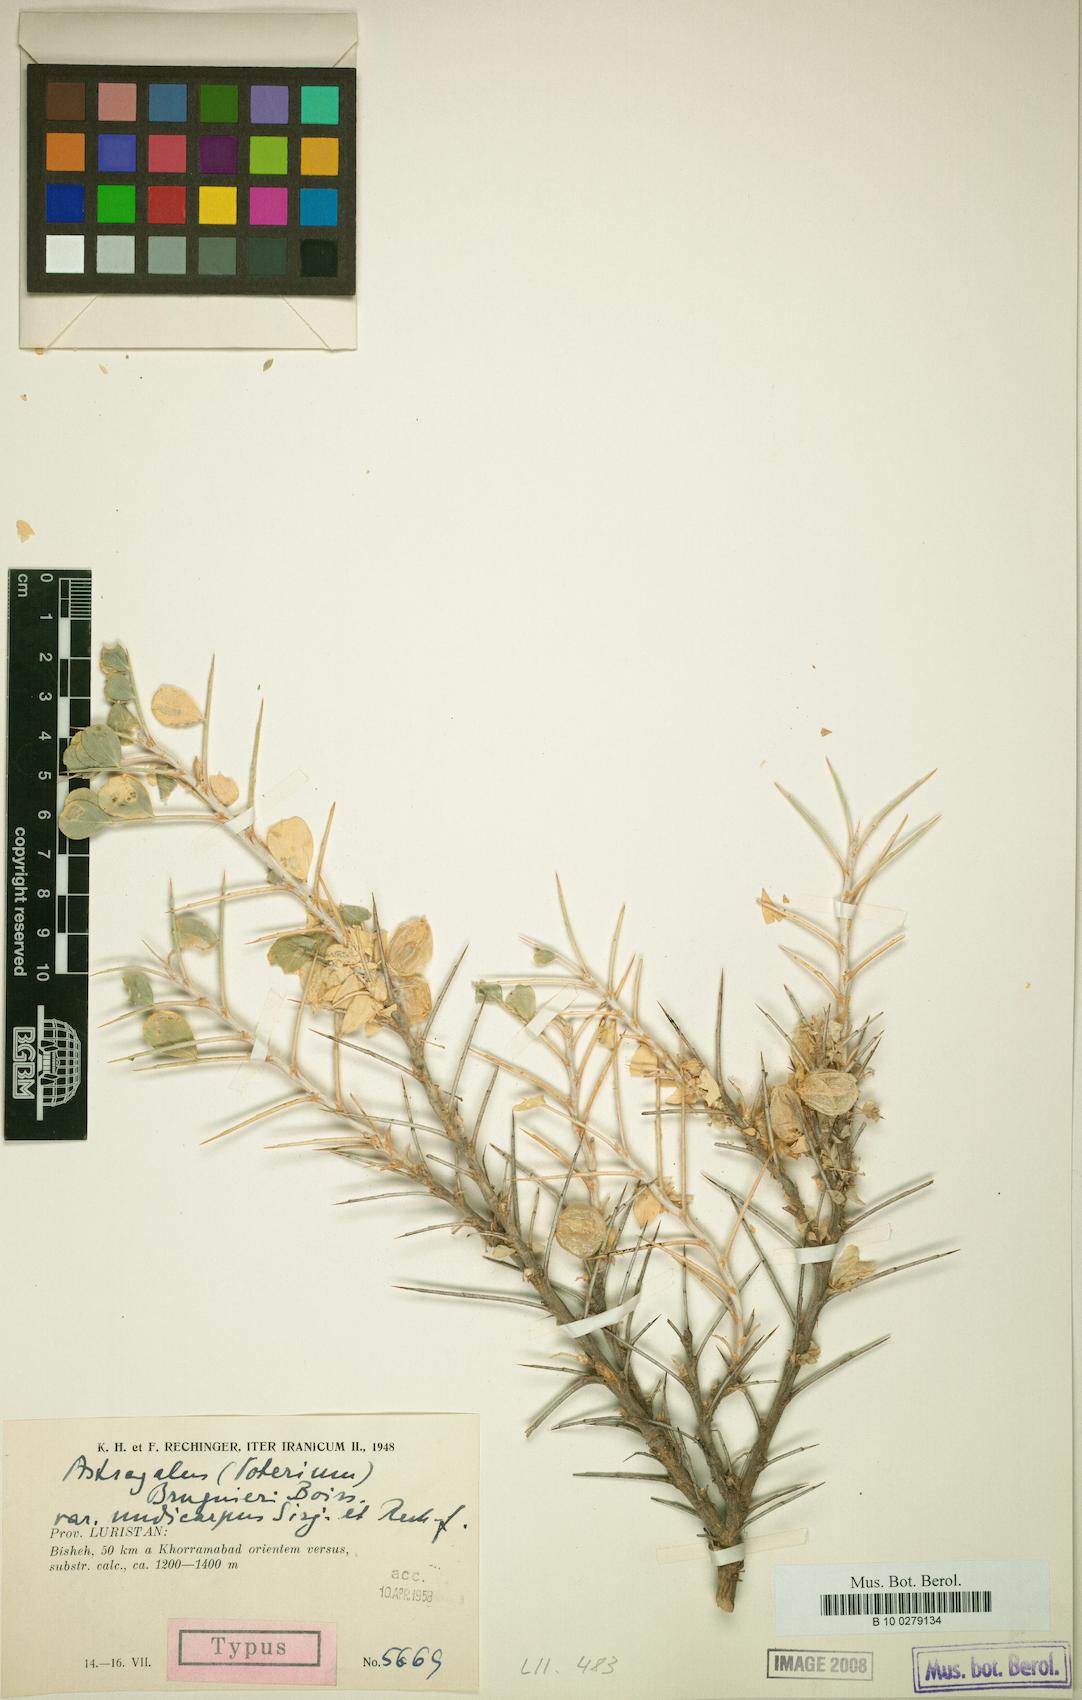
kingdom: Plantae
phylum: Tracheophyta
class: Magnoliopsida
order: Fabales
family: Fabaceae
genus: Astragalus
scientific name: Astragalus baba-alliar
